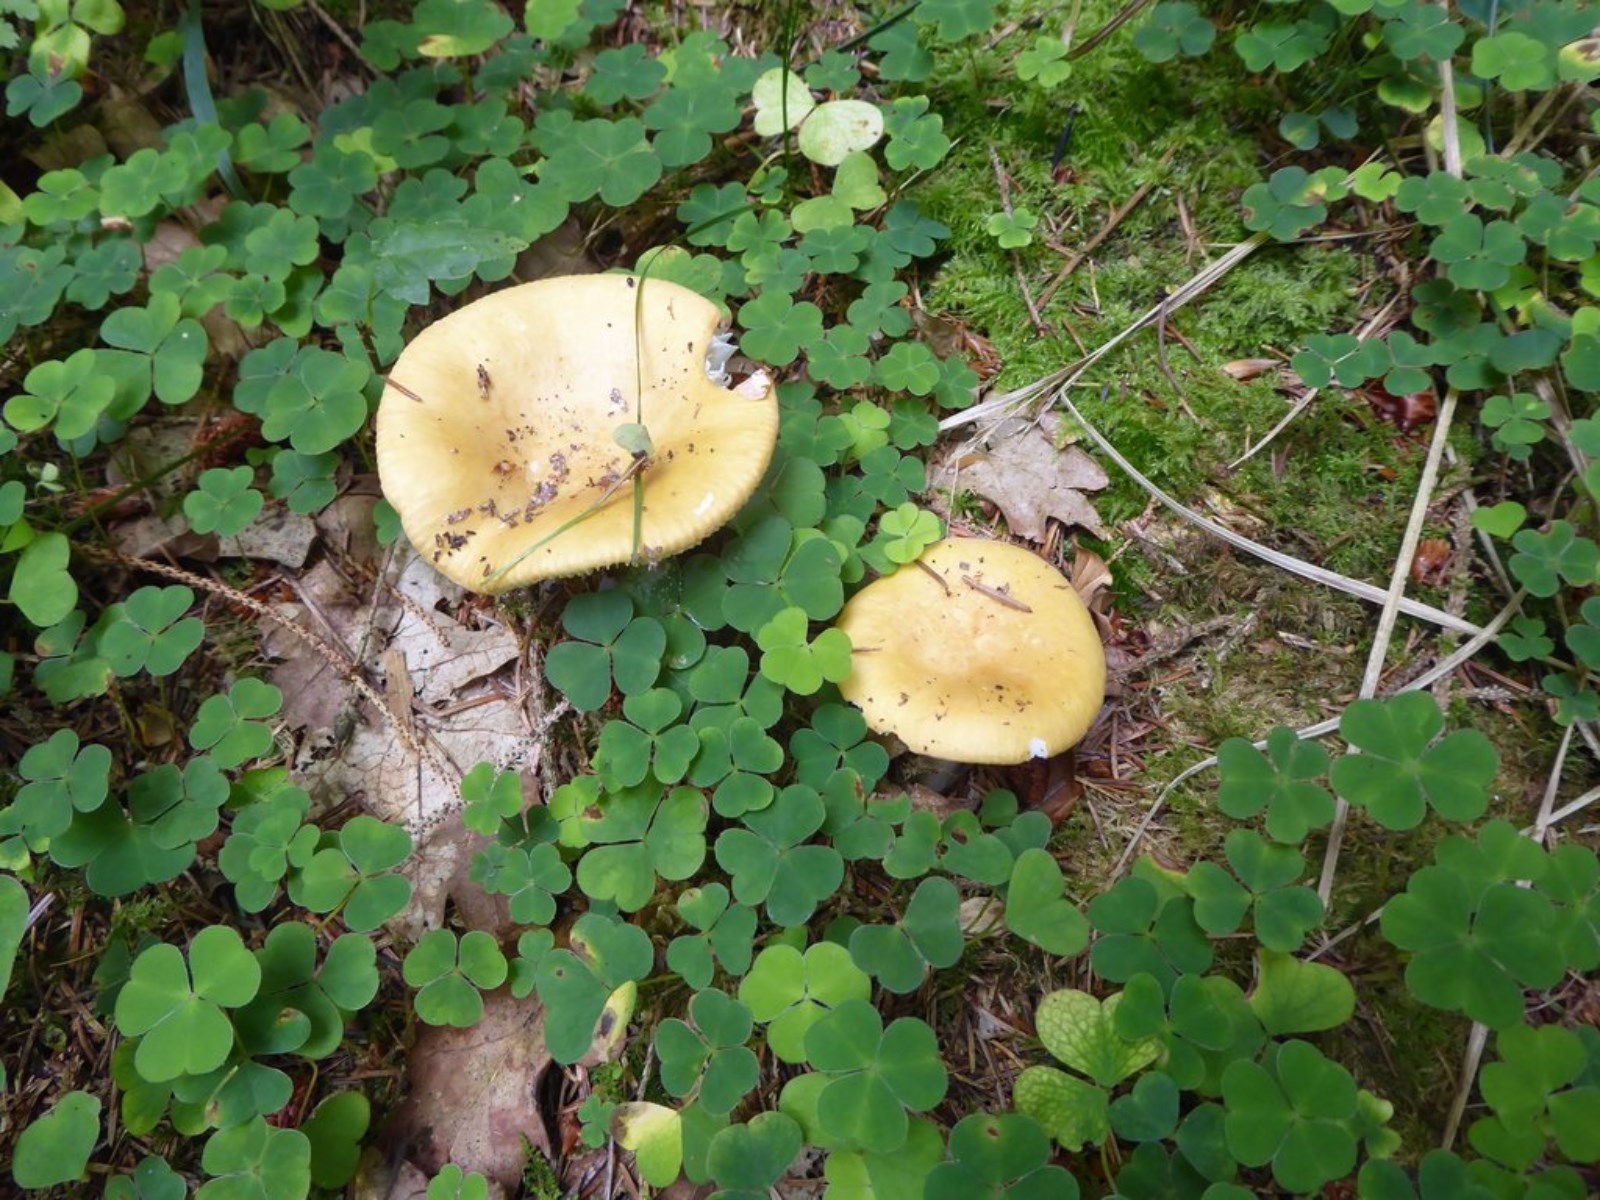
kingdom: Fungi
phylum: Basidiomycota
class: Agaricomycetes
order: Russulales
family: Russulaceae
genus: Russula
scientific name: Russula ochroleuca
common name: okkergul skørhat
